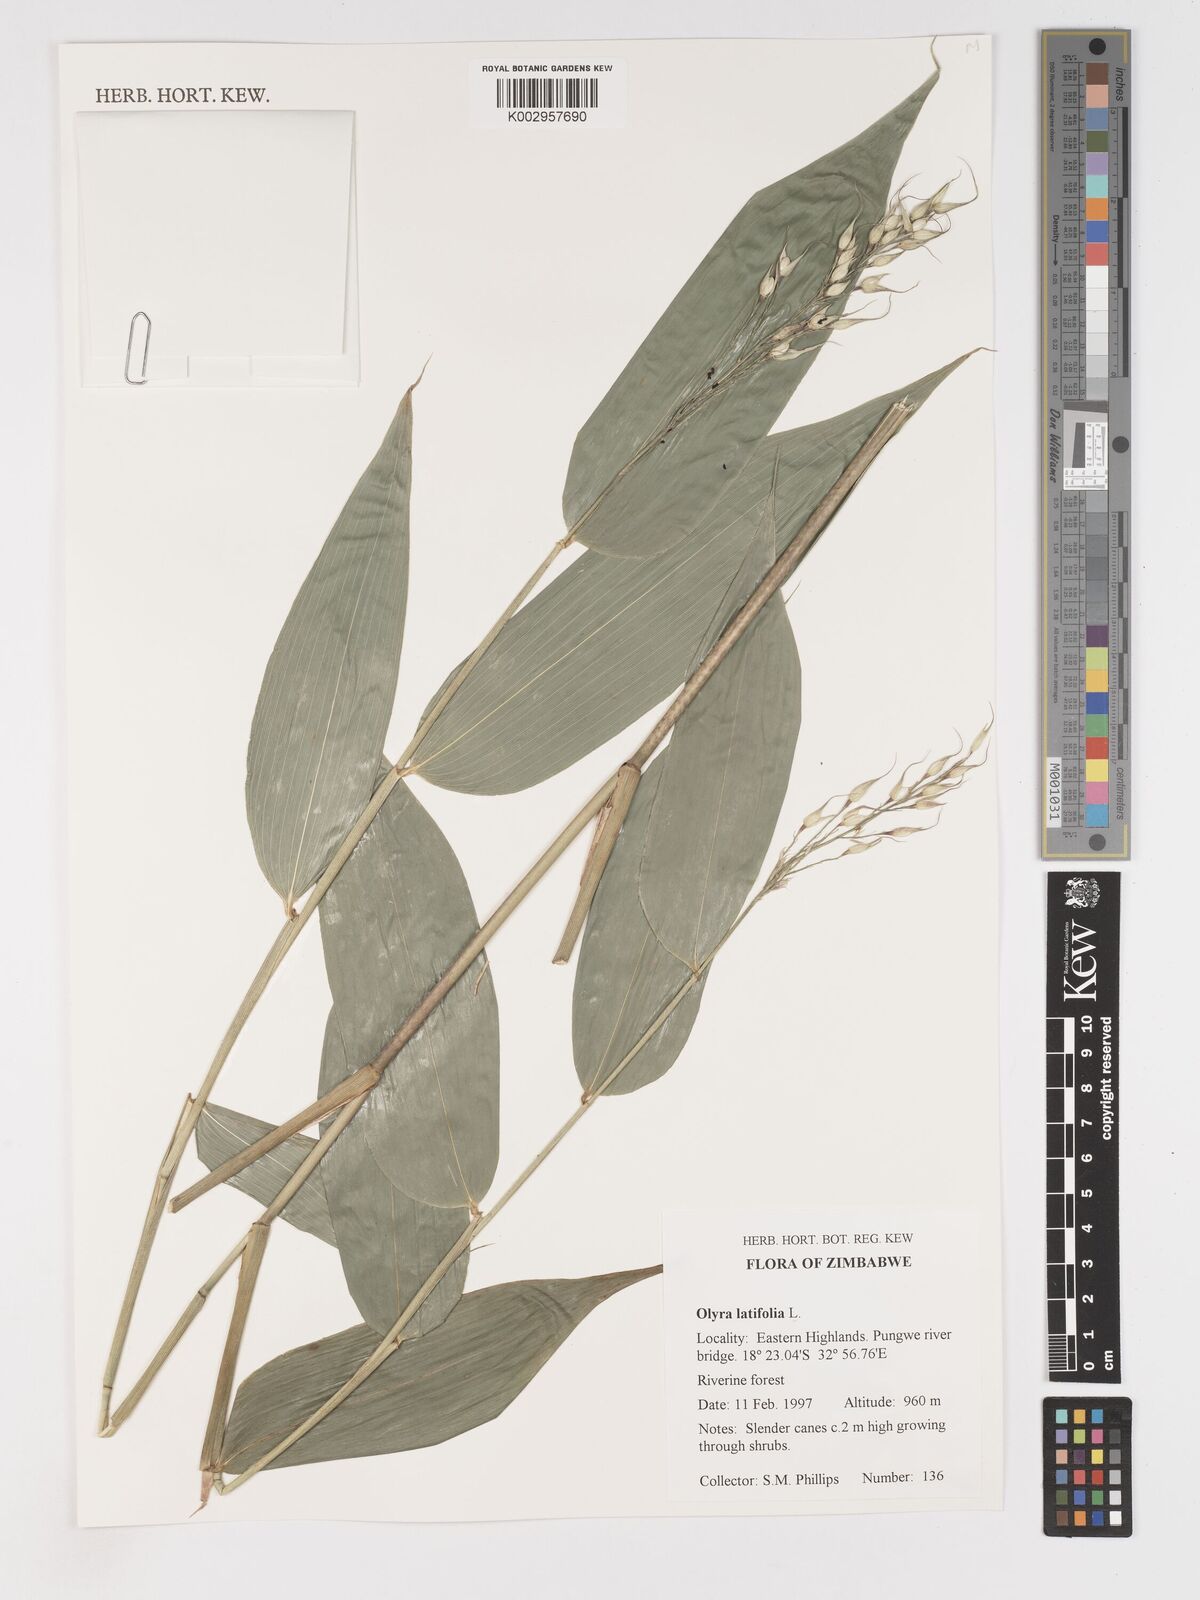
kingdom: Plantae
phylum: Tracheophyta
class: Liliopsida
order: Poales
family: Poaceae
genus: Olyra
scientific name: Olyra latifolia
